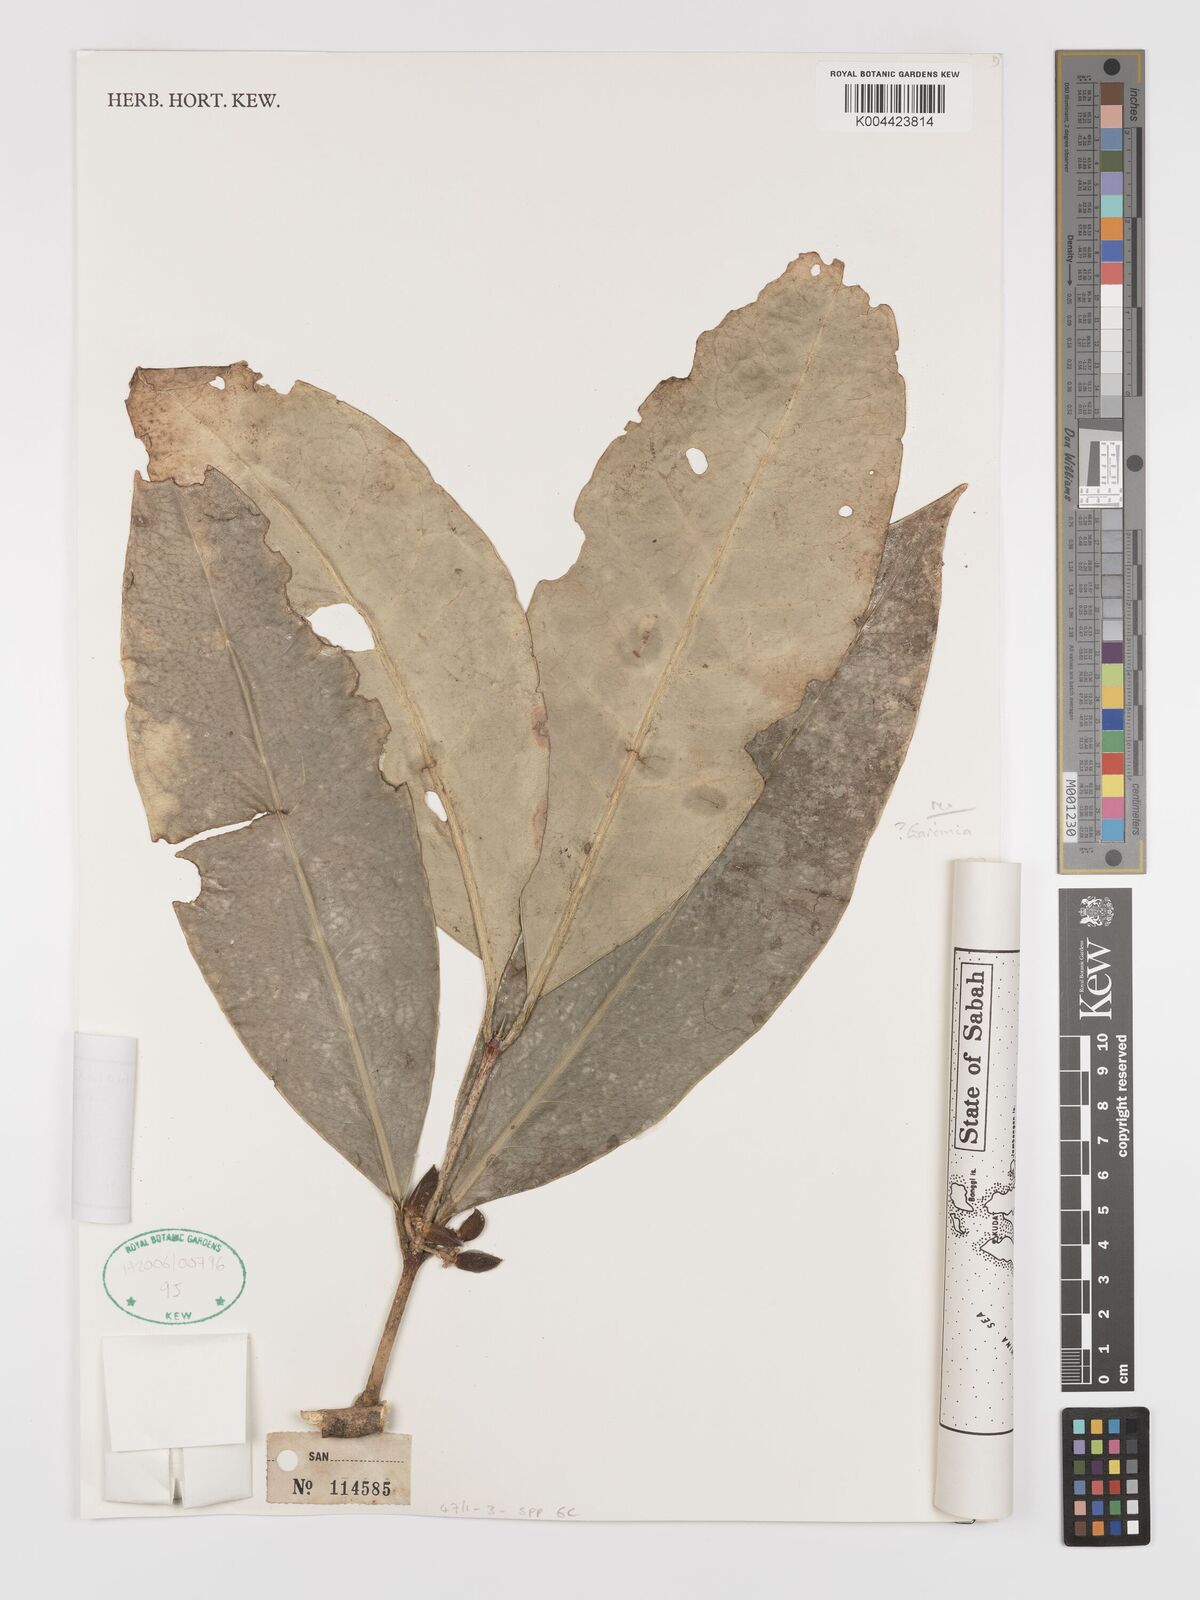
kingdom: Plantae
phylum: Tracheophyta
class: Magnoliopsida
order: Celastrales
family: Celastraceae
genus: Microtropis
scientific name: Microtropis platyphylla
